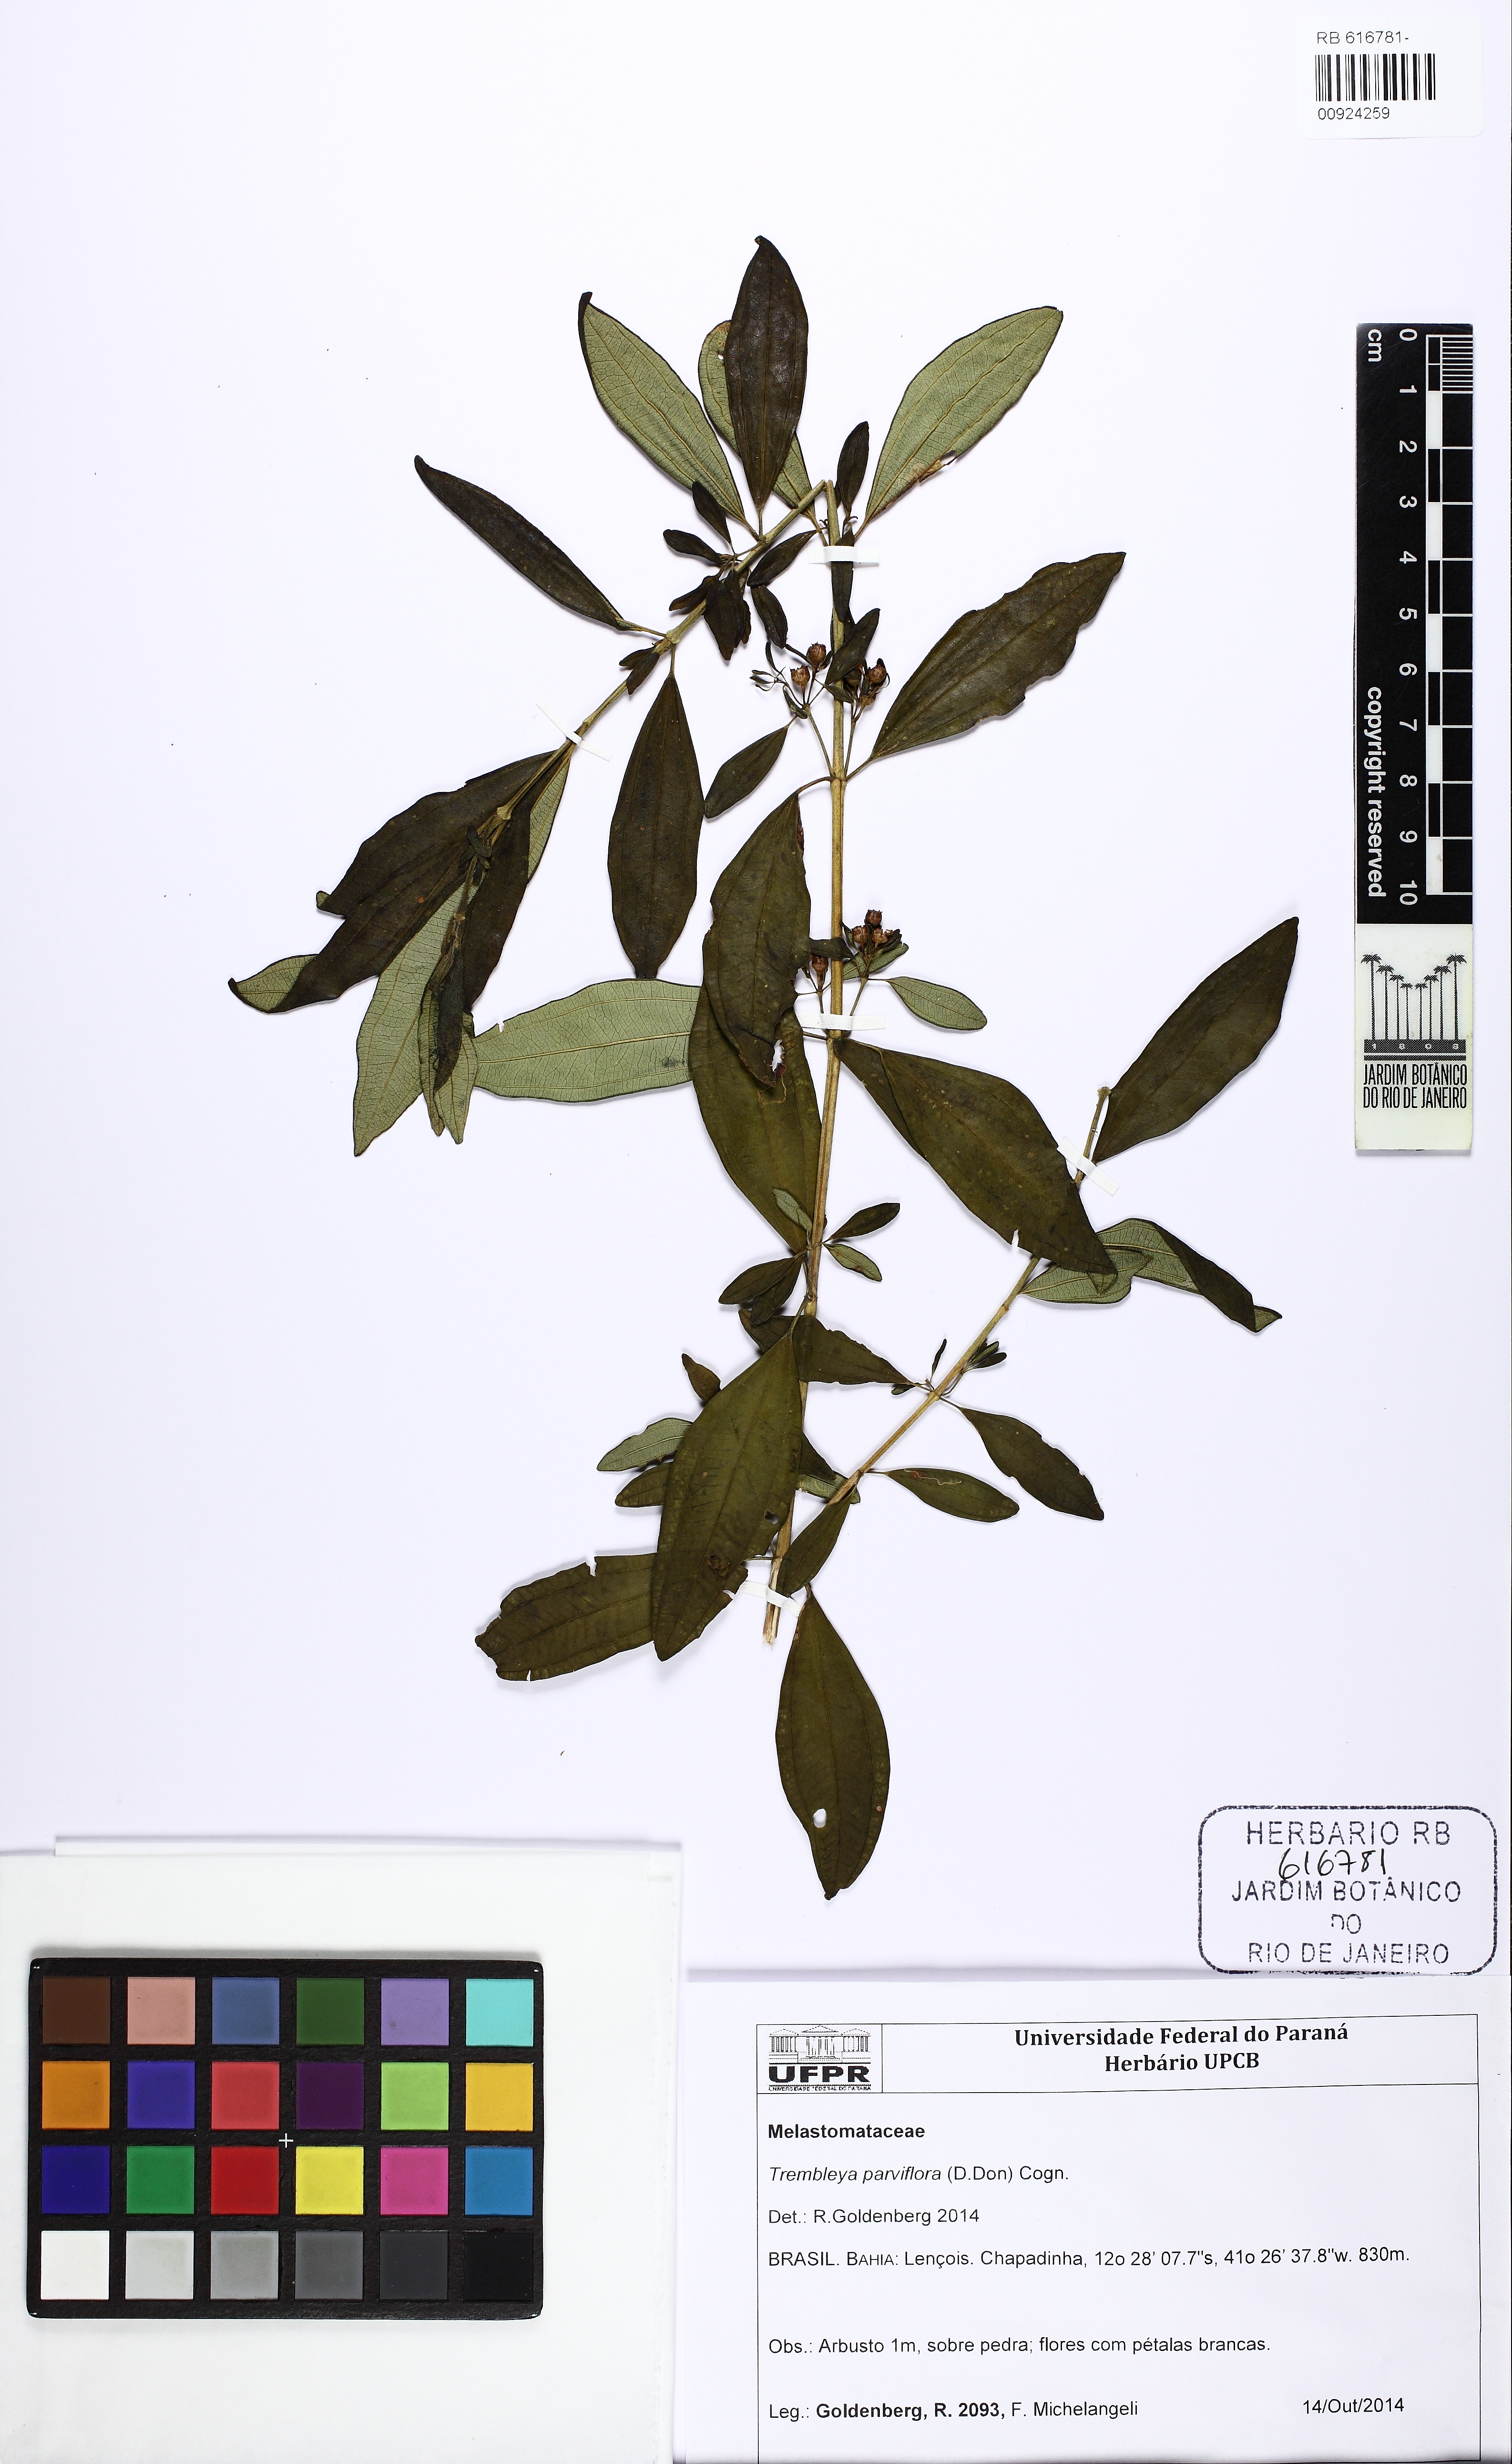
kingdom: Plantae
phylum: Tracheophyta
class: Magnoliopsida
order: Myrtales
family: Melastomataceae
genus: Microlicia
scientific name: Microlicia parviflora
